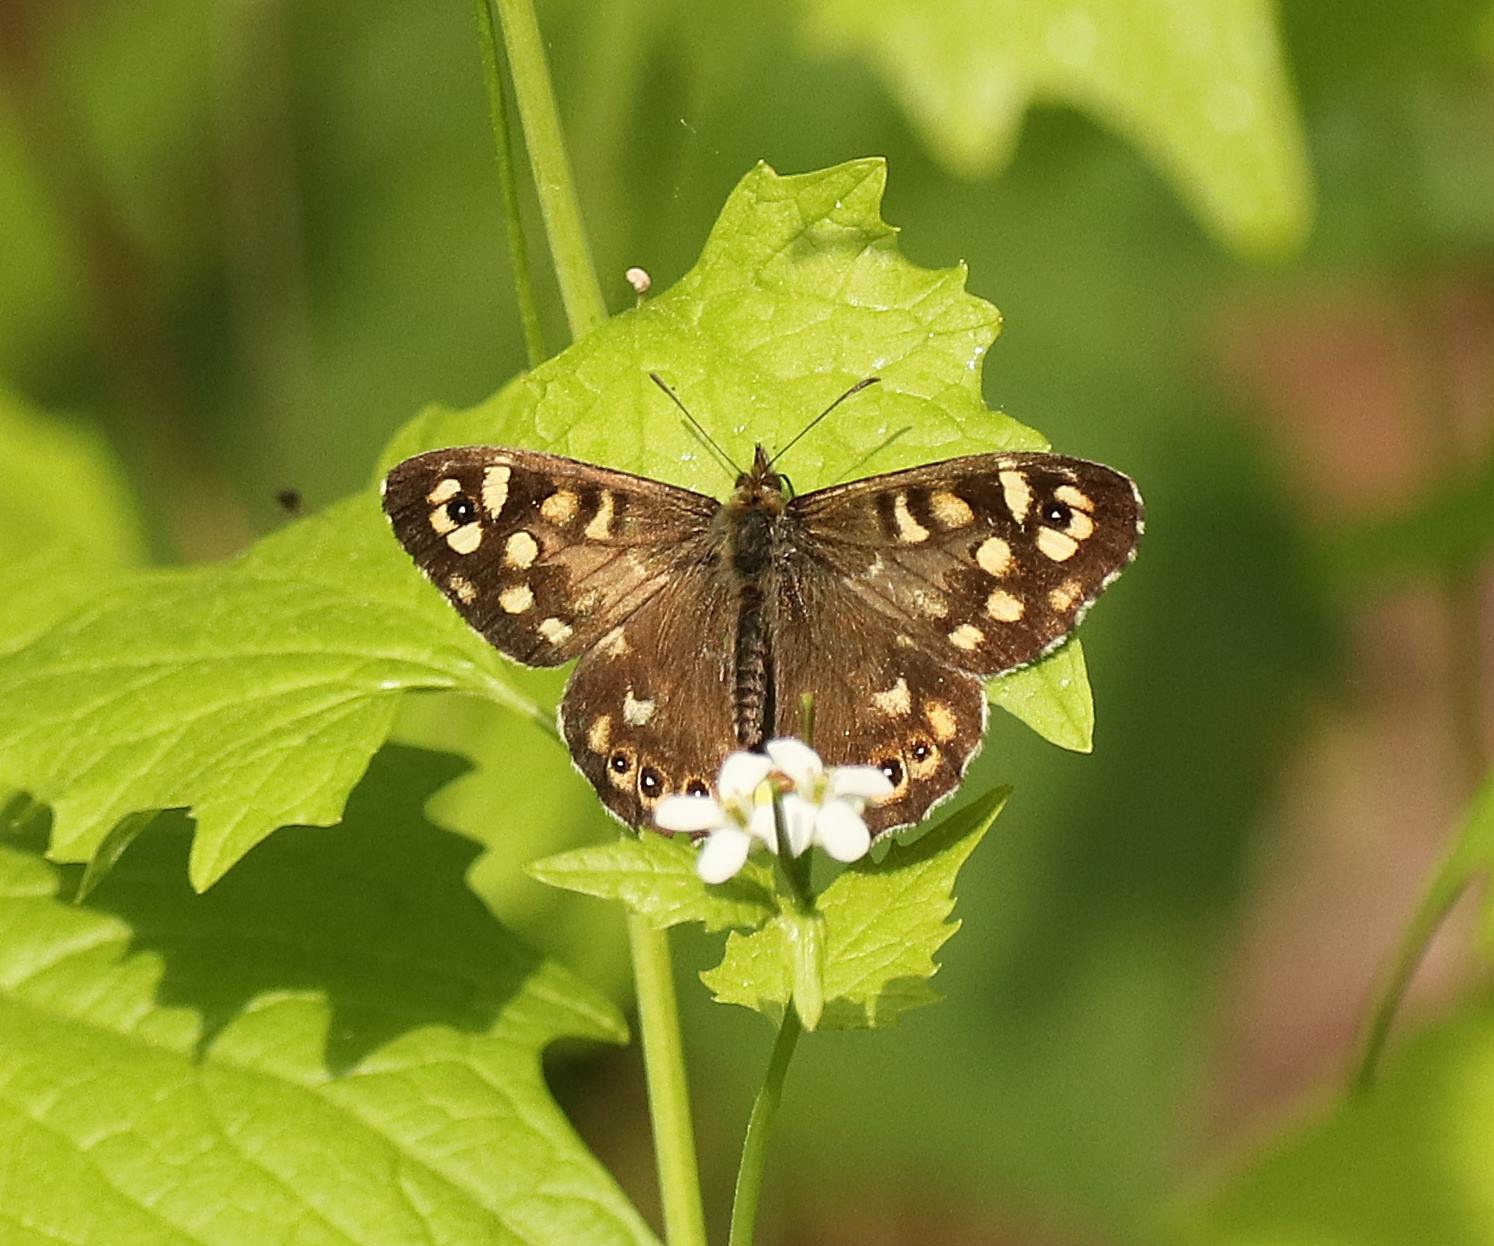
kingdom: Animalia
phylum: Arthropoda
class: Insecta
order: Lepidoptera
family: Nymphalidae
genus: Pararge
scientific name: Pararge aegeria
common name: Skovrandøje
